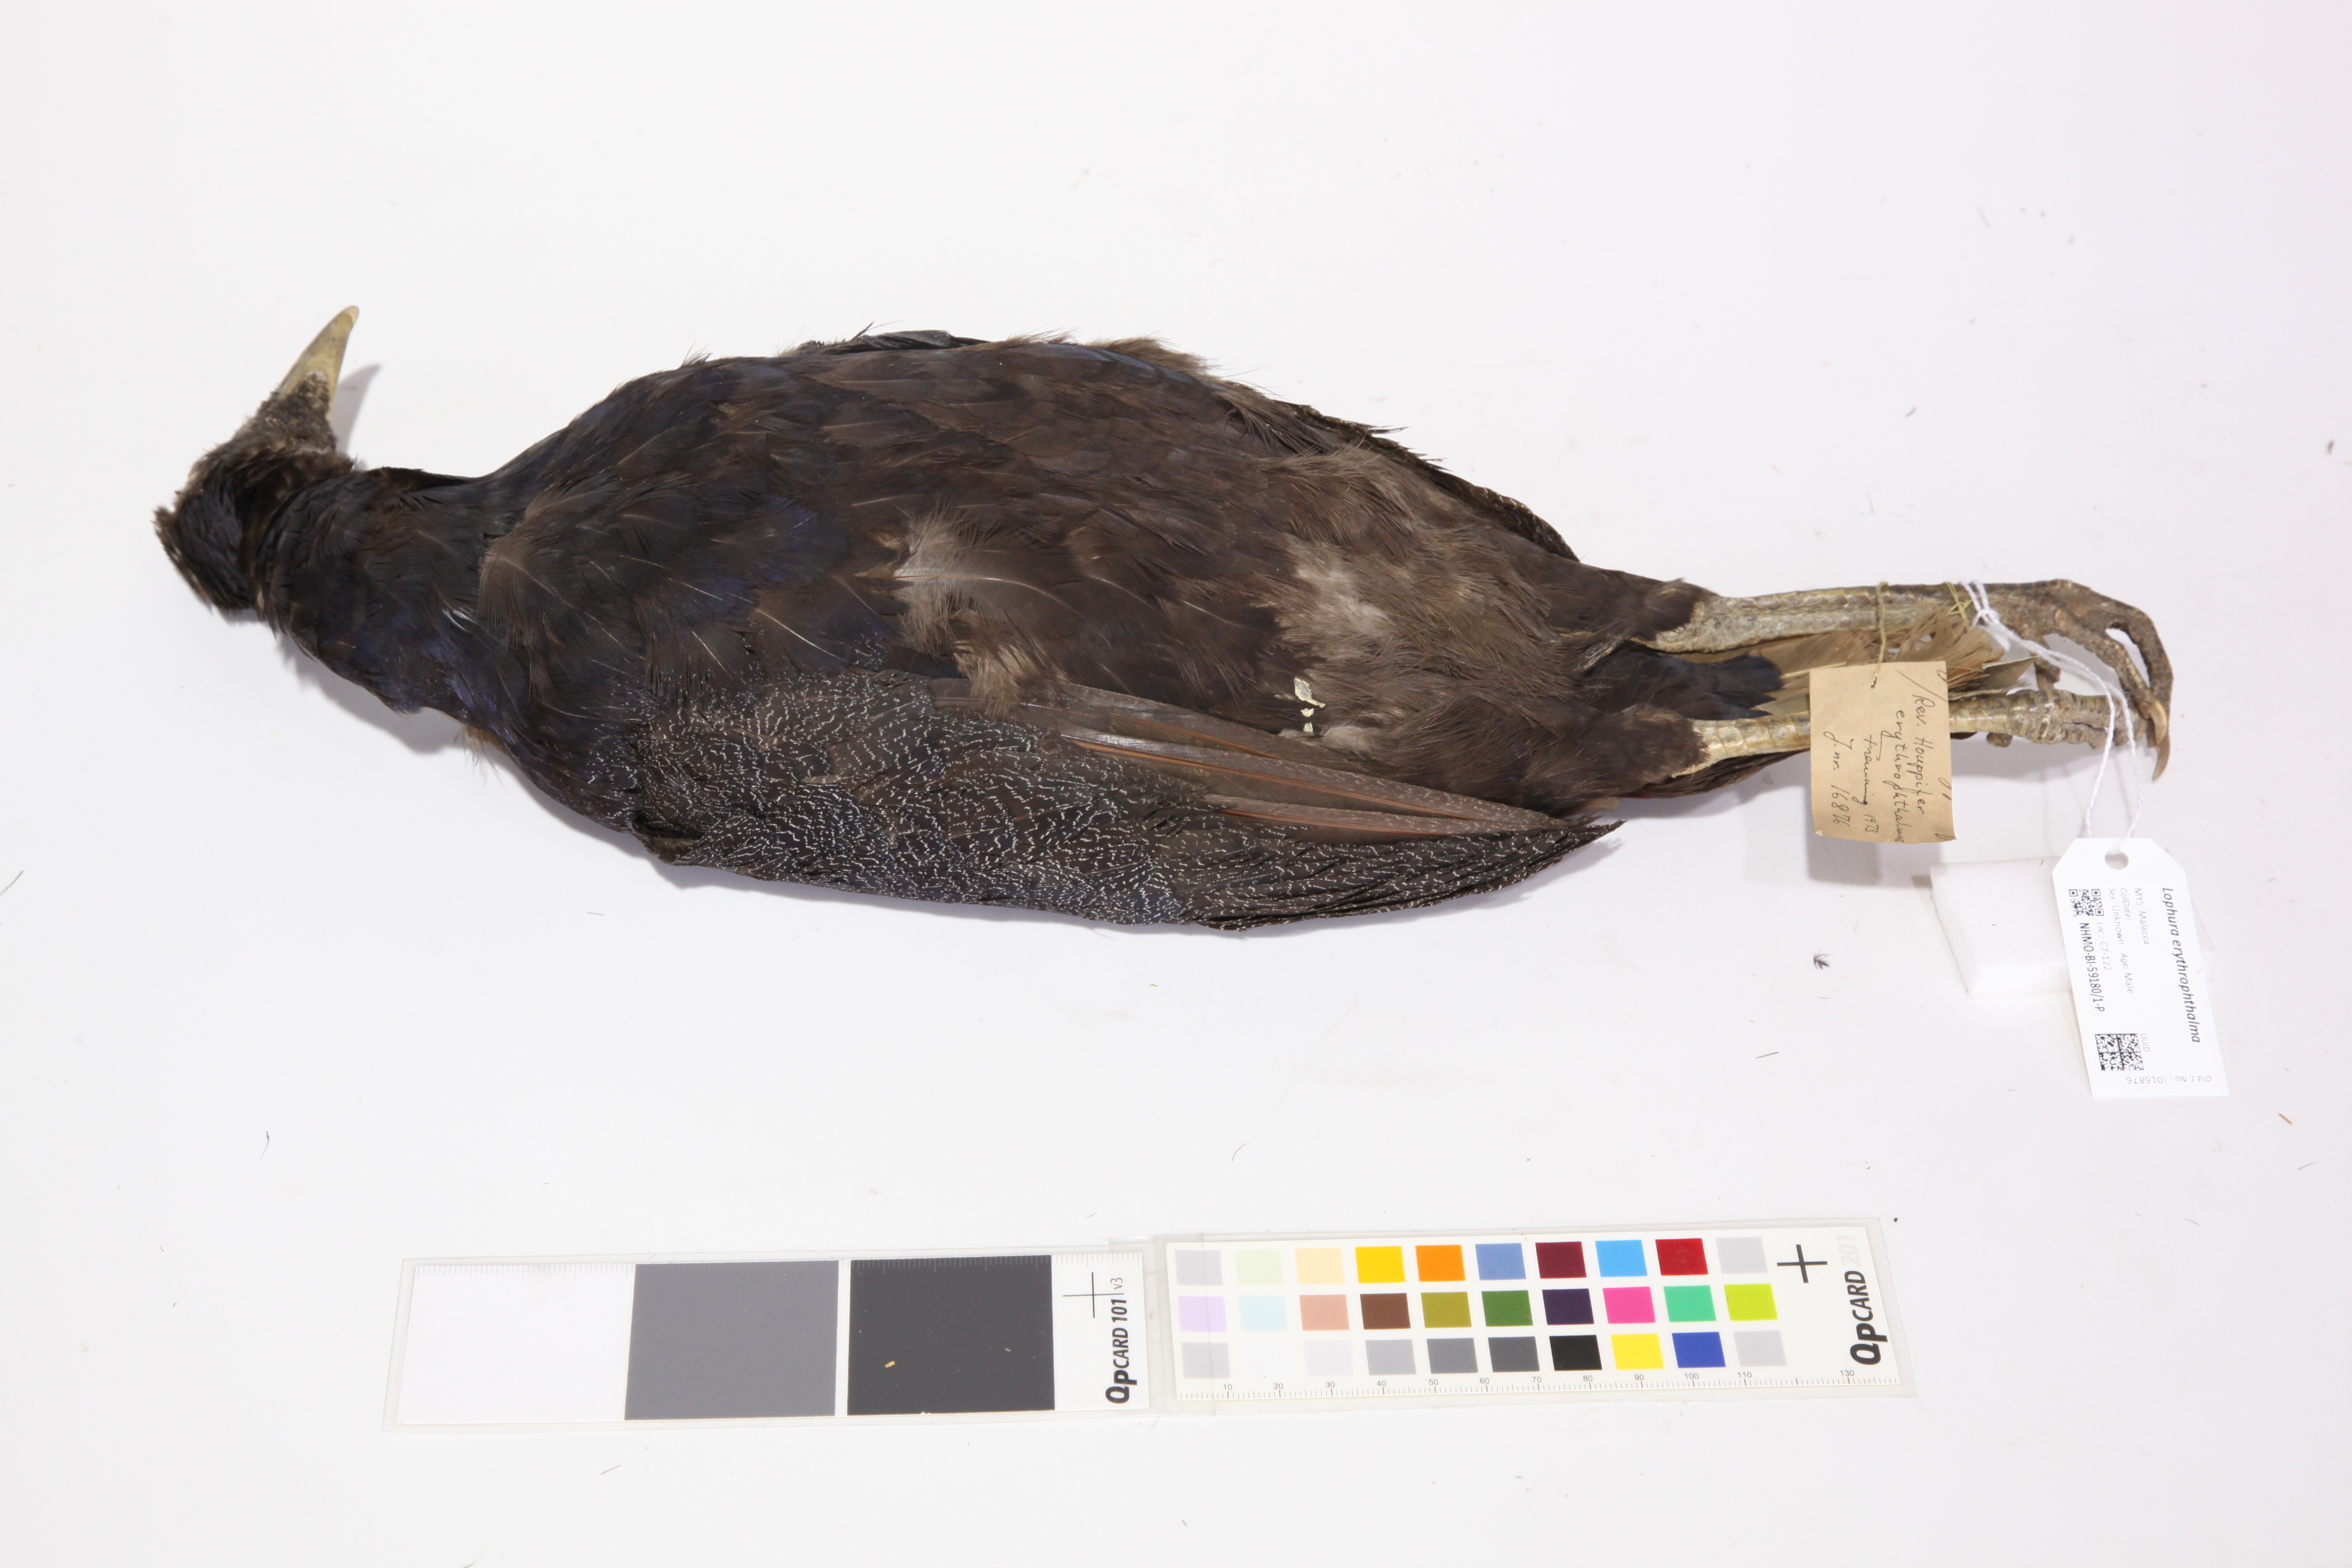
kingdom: Animalia
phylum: Chordata
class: Aves
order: Galliformes
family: Phasianidae
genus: Lophura
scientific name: Lophura erythrophthalma
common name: Crestless fireback
